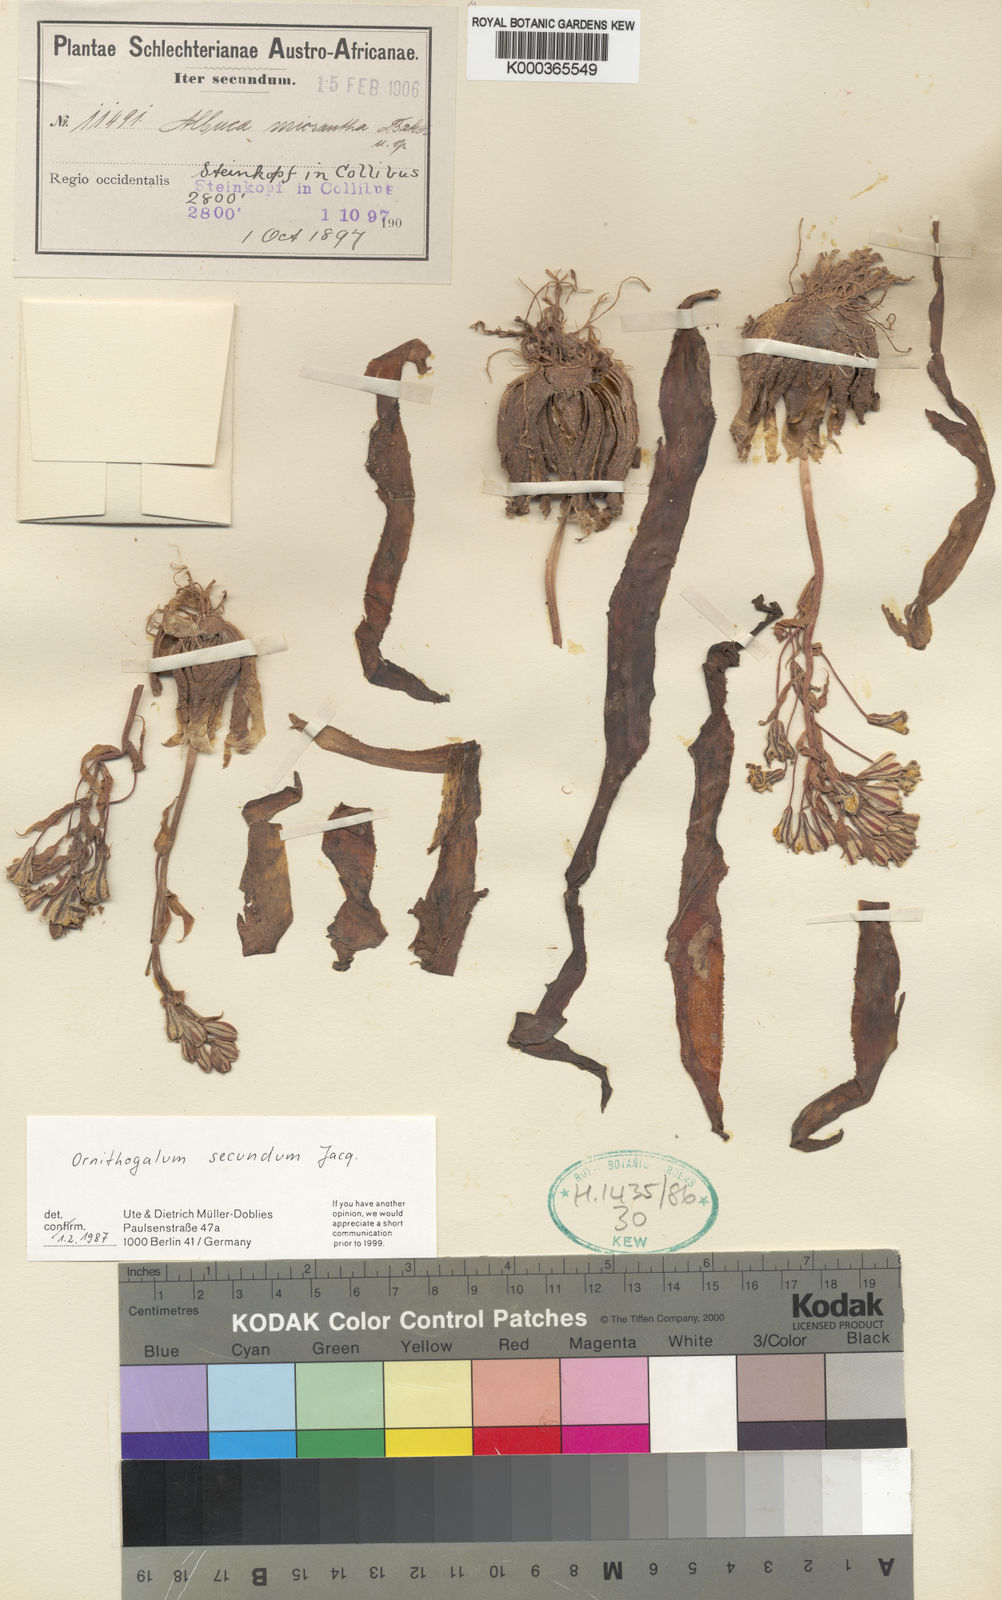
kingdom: Plantae
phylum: Tracheophyta
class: Liliopsida
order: Asparagales
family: Asparagaceae
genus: Albuca
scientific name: Albuca secunda
